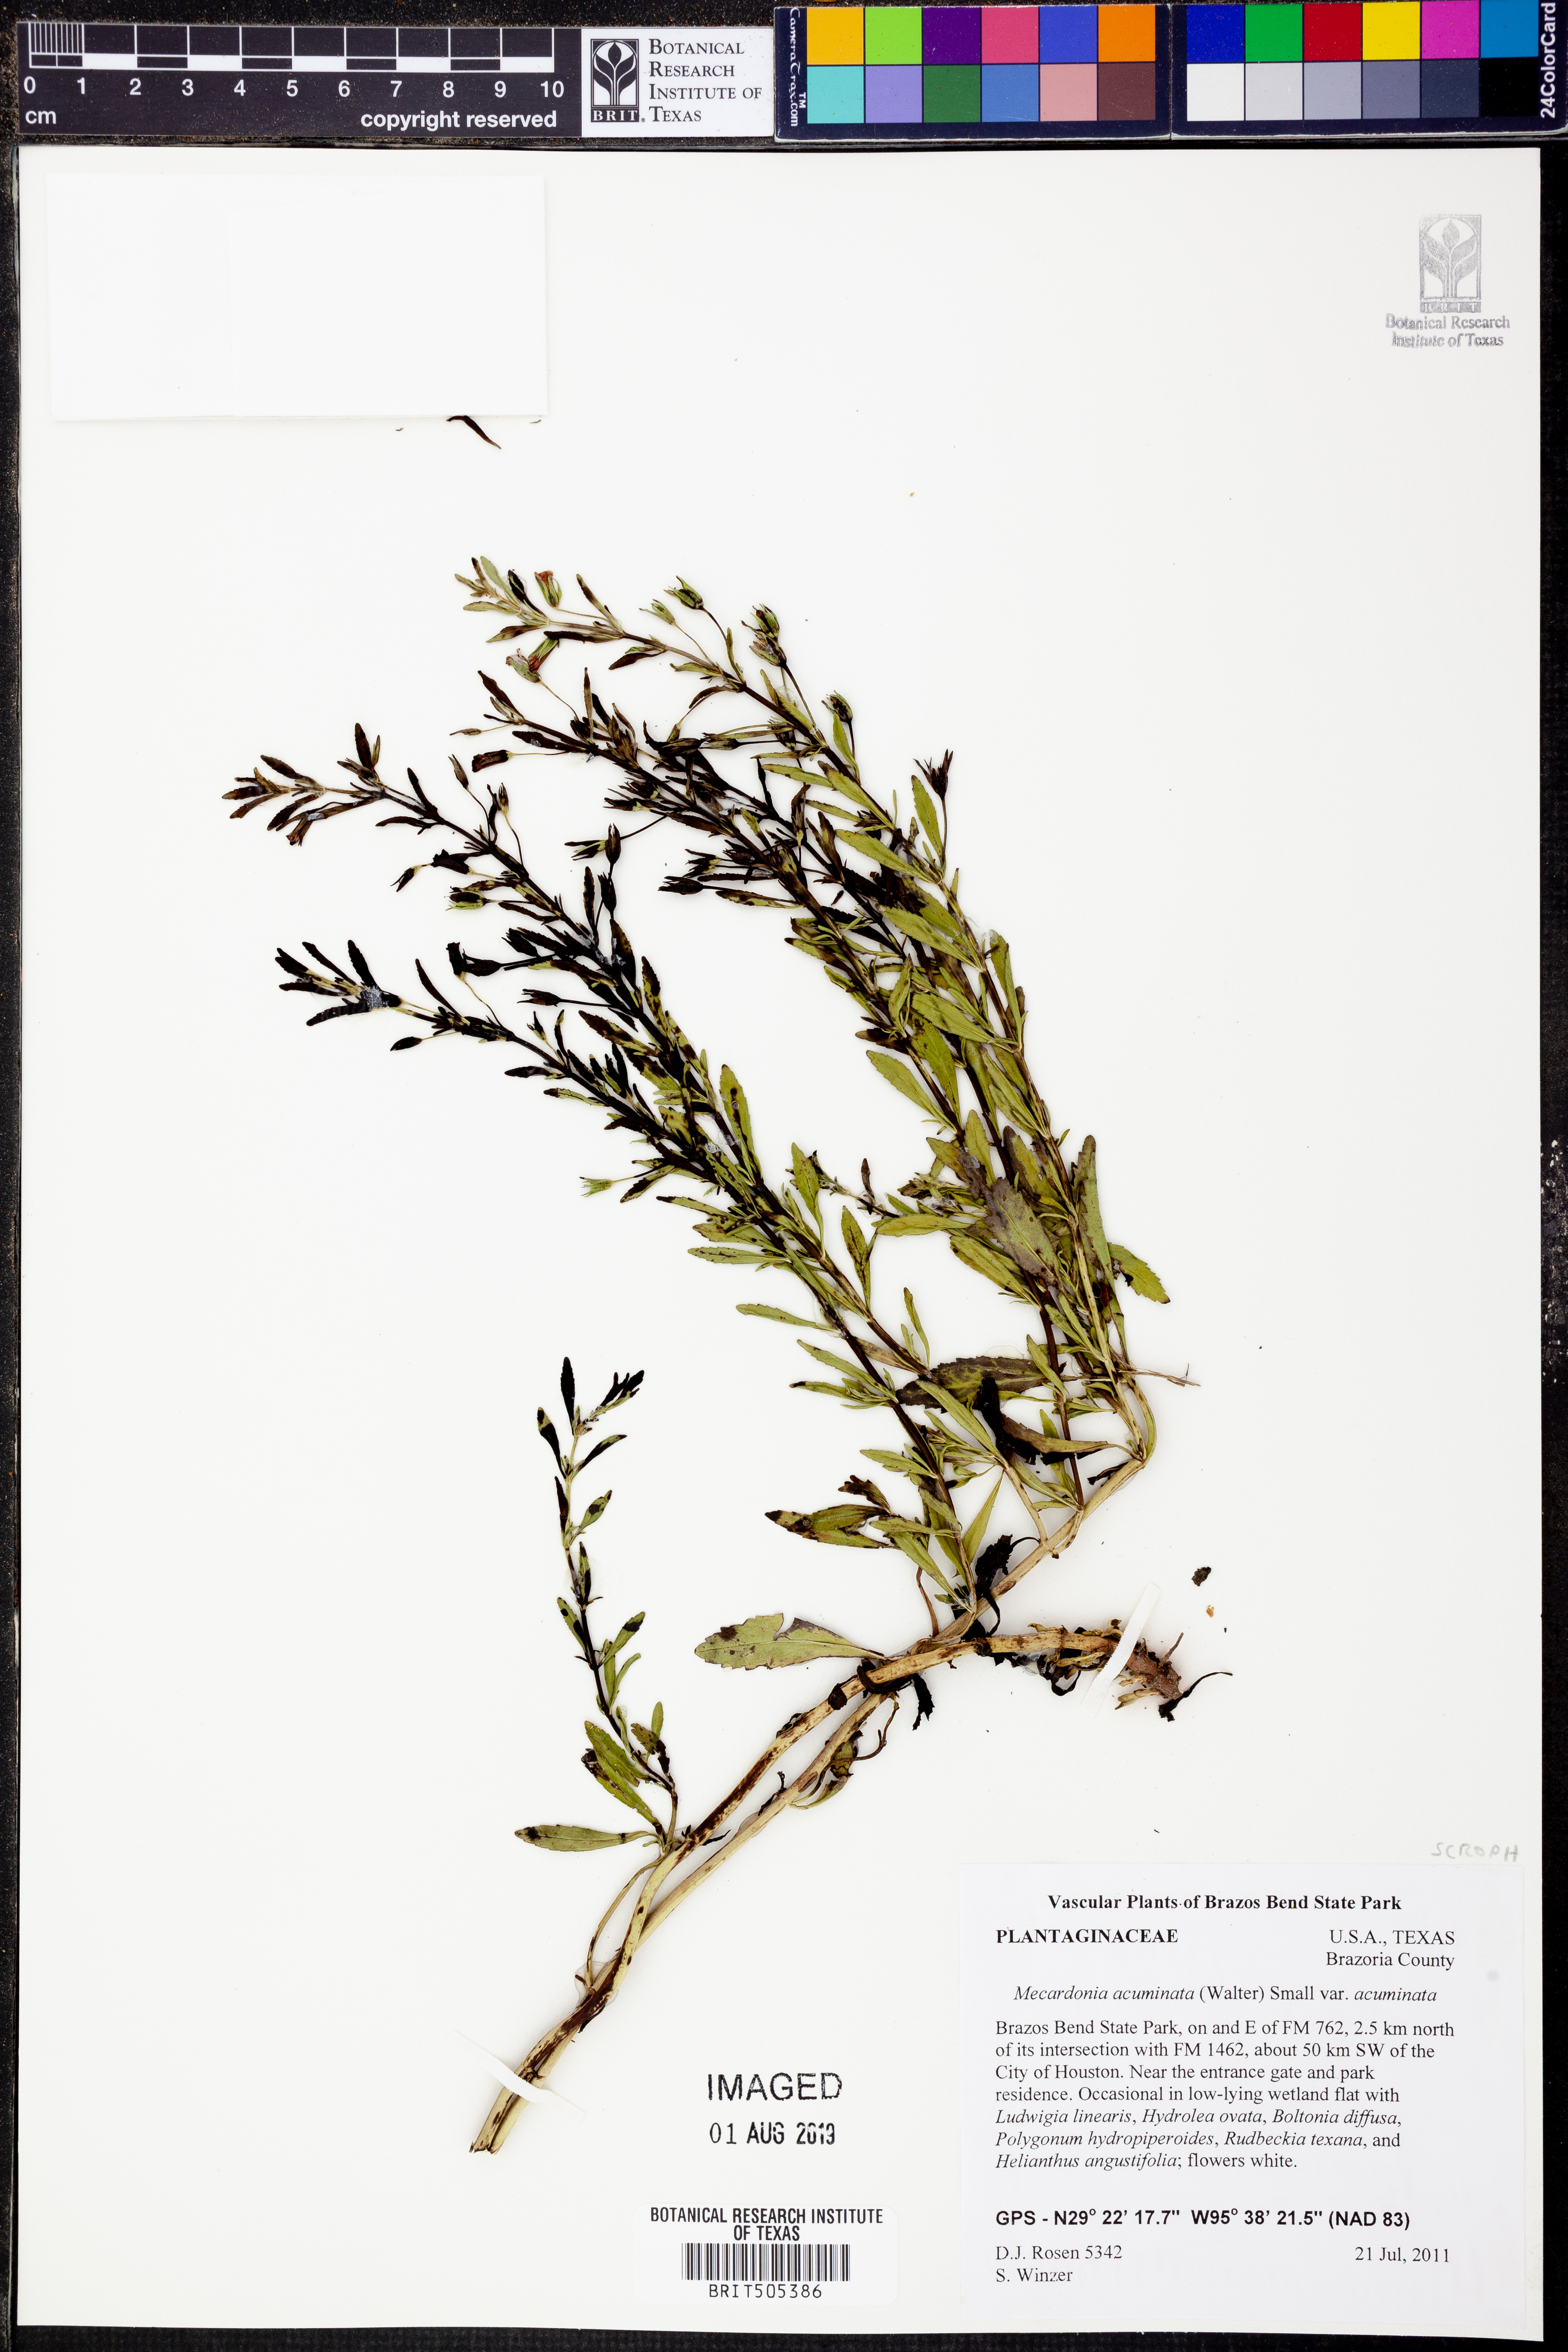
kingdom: Plantae
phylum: Tracheophyta
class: Magnoliopsida
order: Lamiales
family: Plantaginaceae
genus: Mecardonia
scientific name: Mecardonia acuminata
